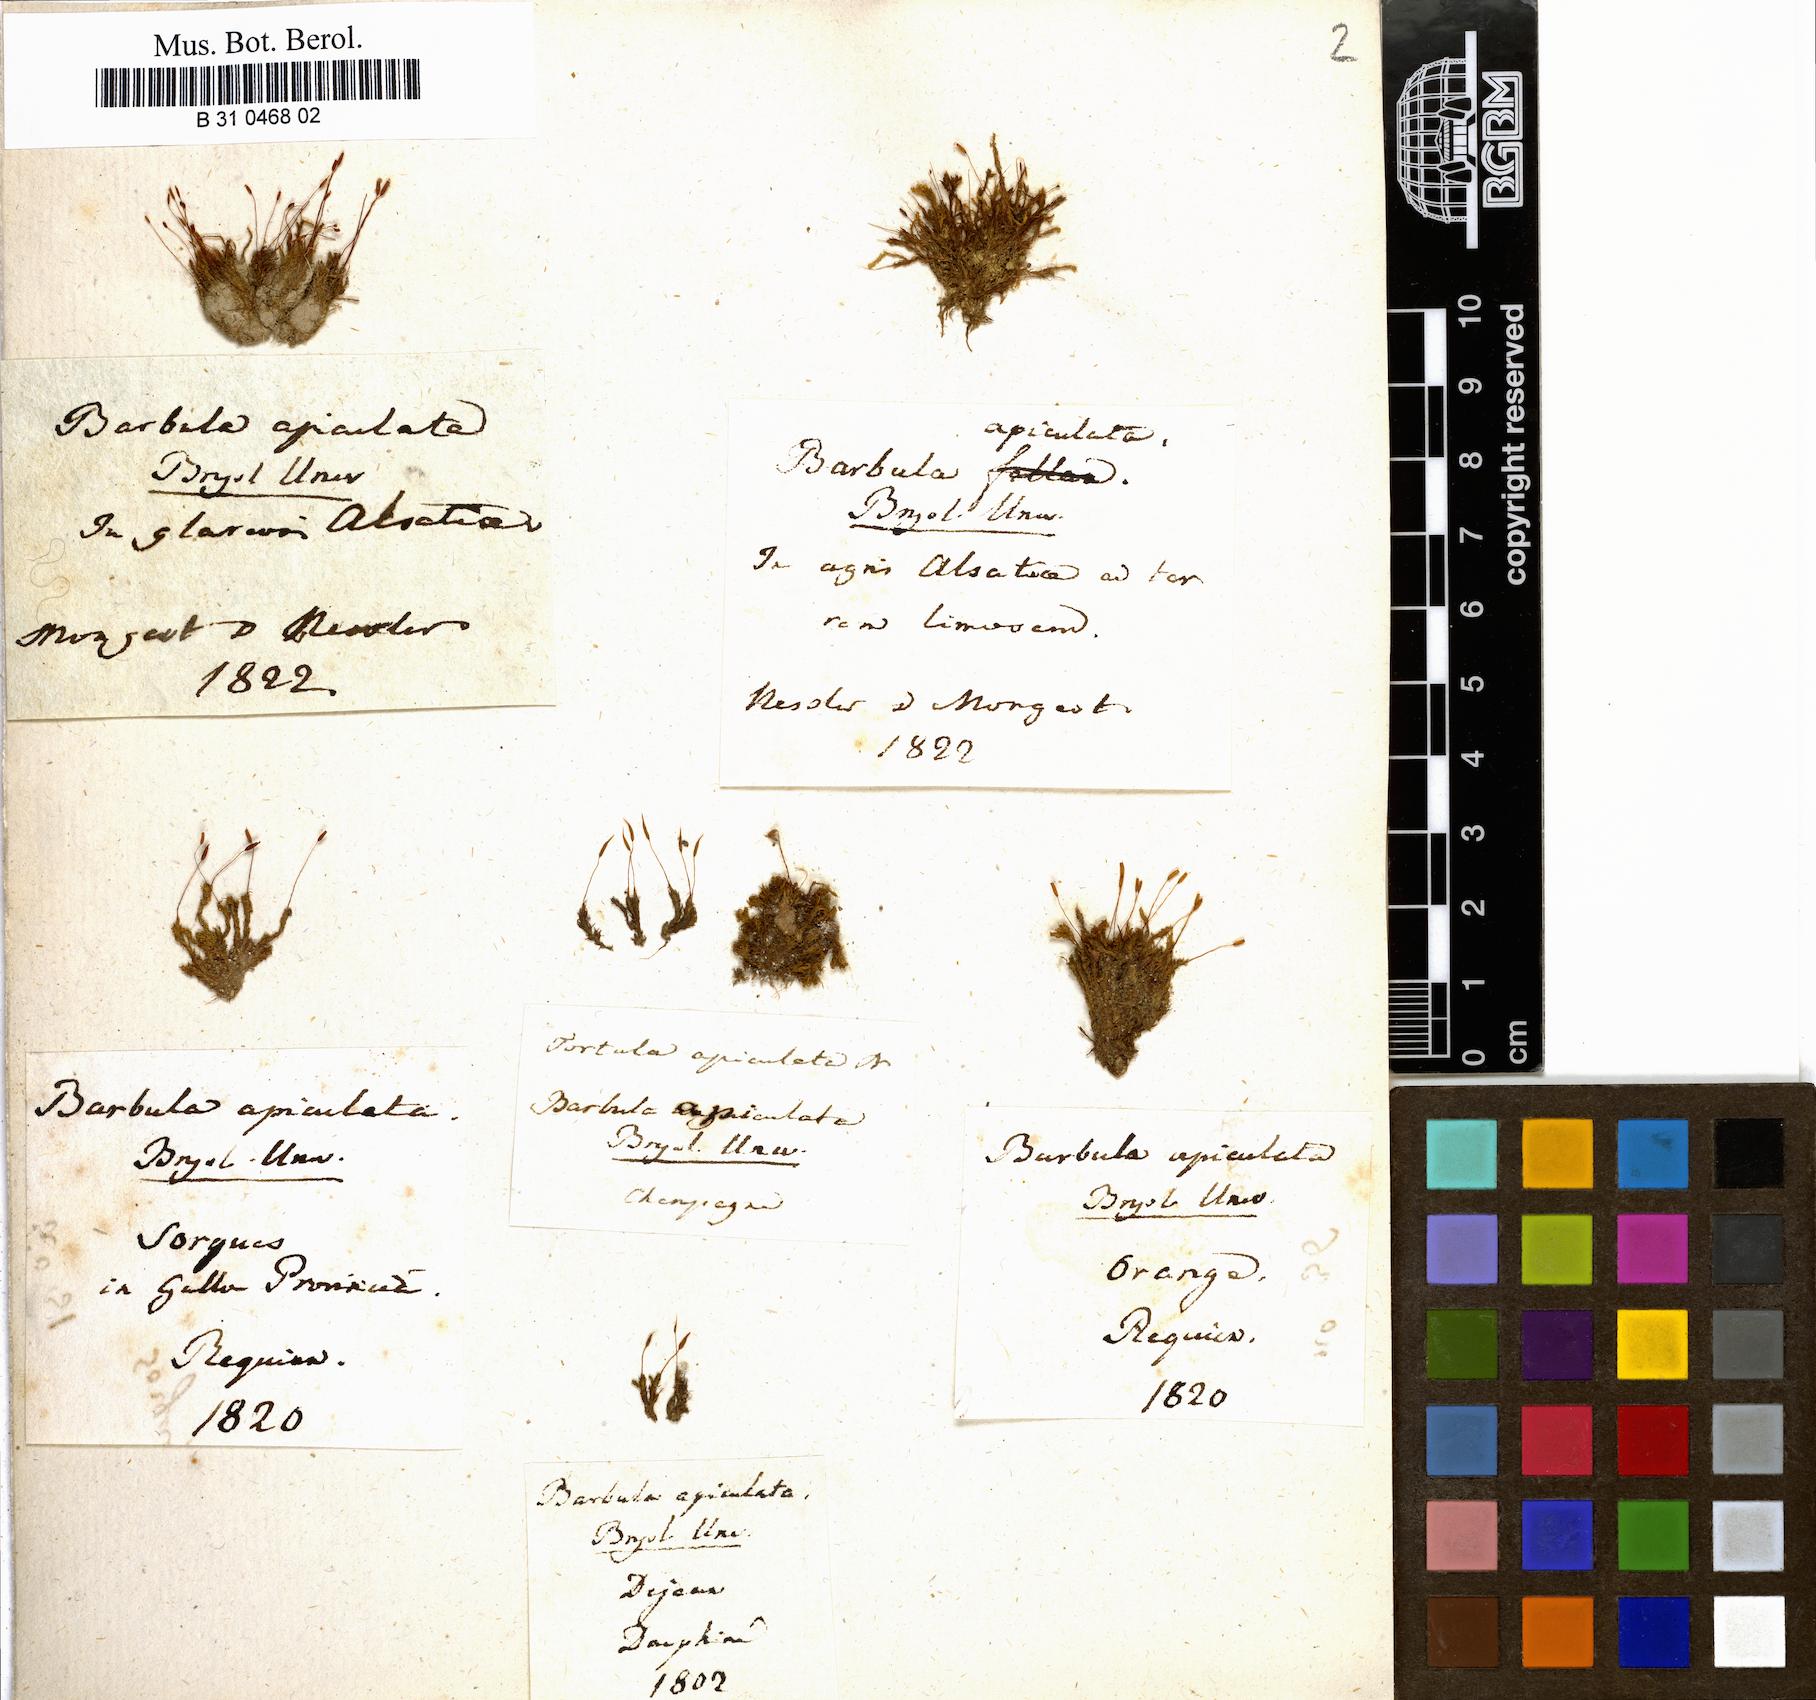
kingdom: Plantae
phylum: Bryophyta
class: Bryopsida
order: Pottiales
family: Pottiaceae
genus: Barbula
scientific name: Barbula unguiculata
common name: Prickly beard moss
